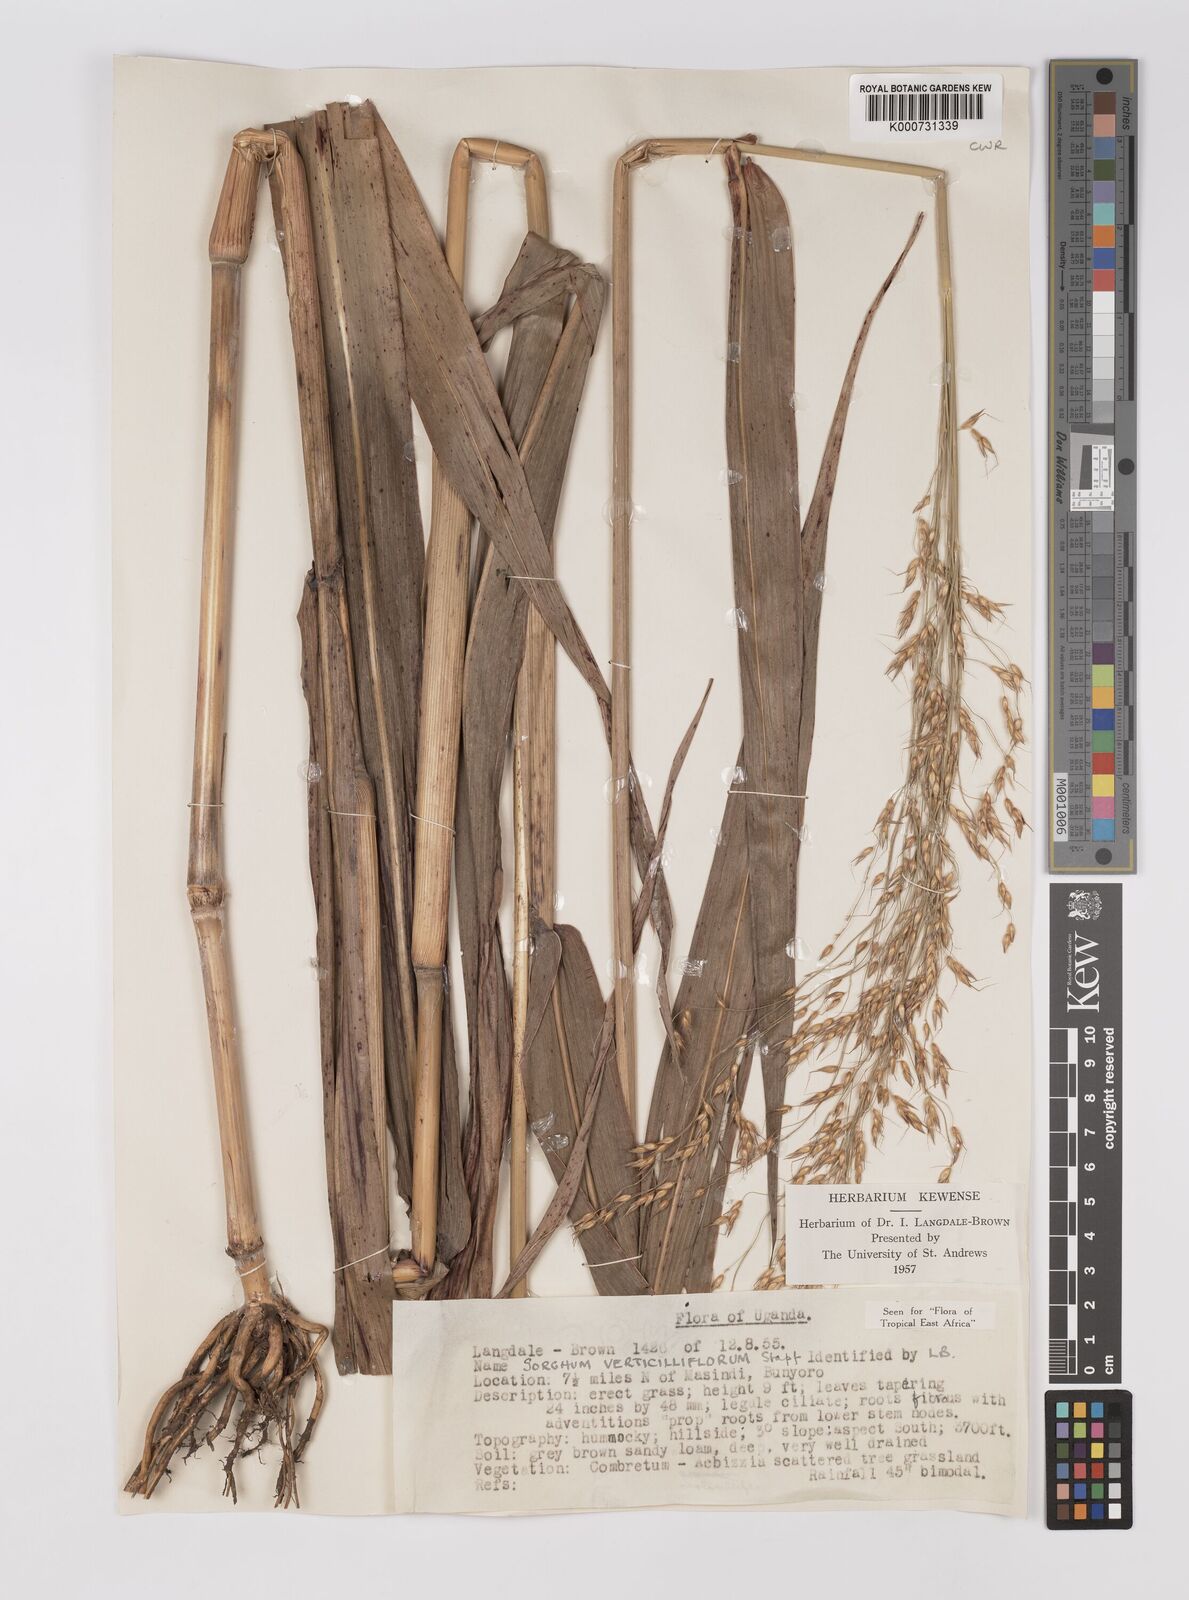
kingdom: Plantae
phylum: Tracheophyta
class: Liliopsida
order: Poales
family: Poaceae
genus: Sorghum
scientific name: Sorghum arundinaceum
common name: Sorghum
